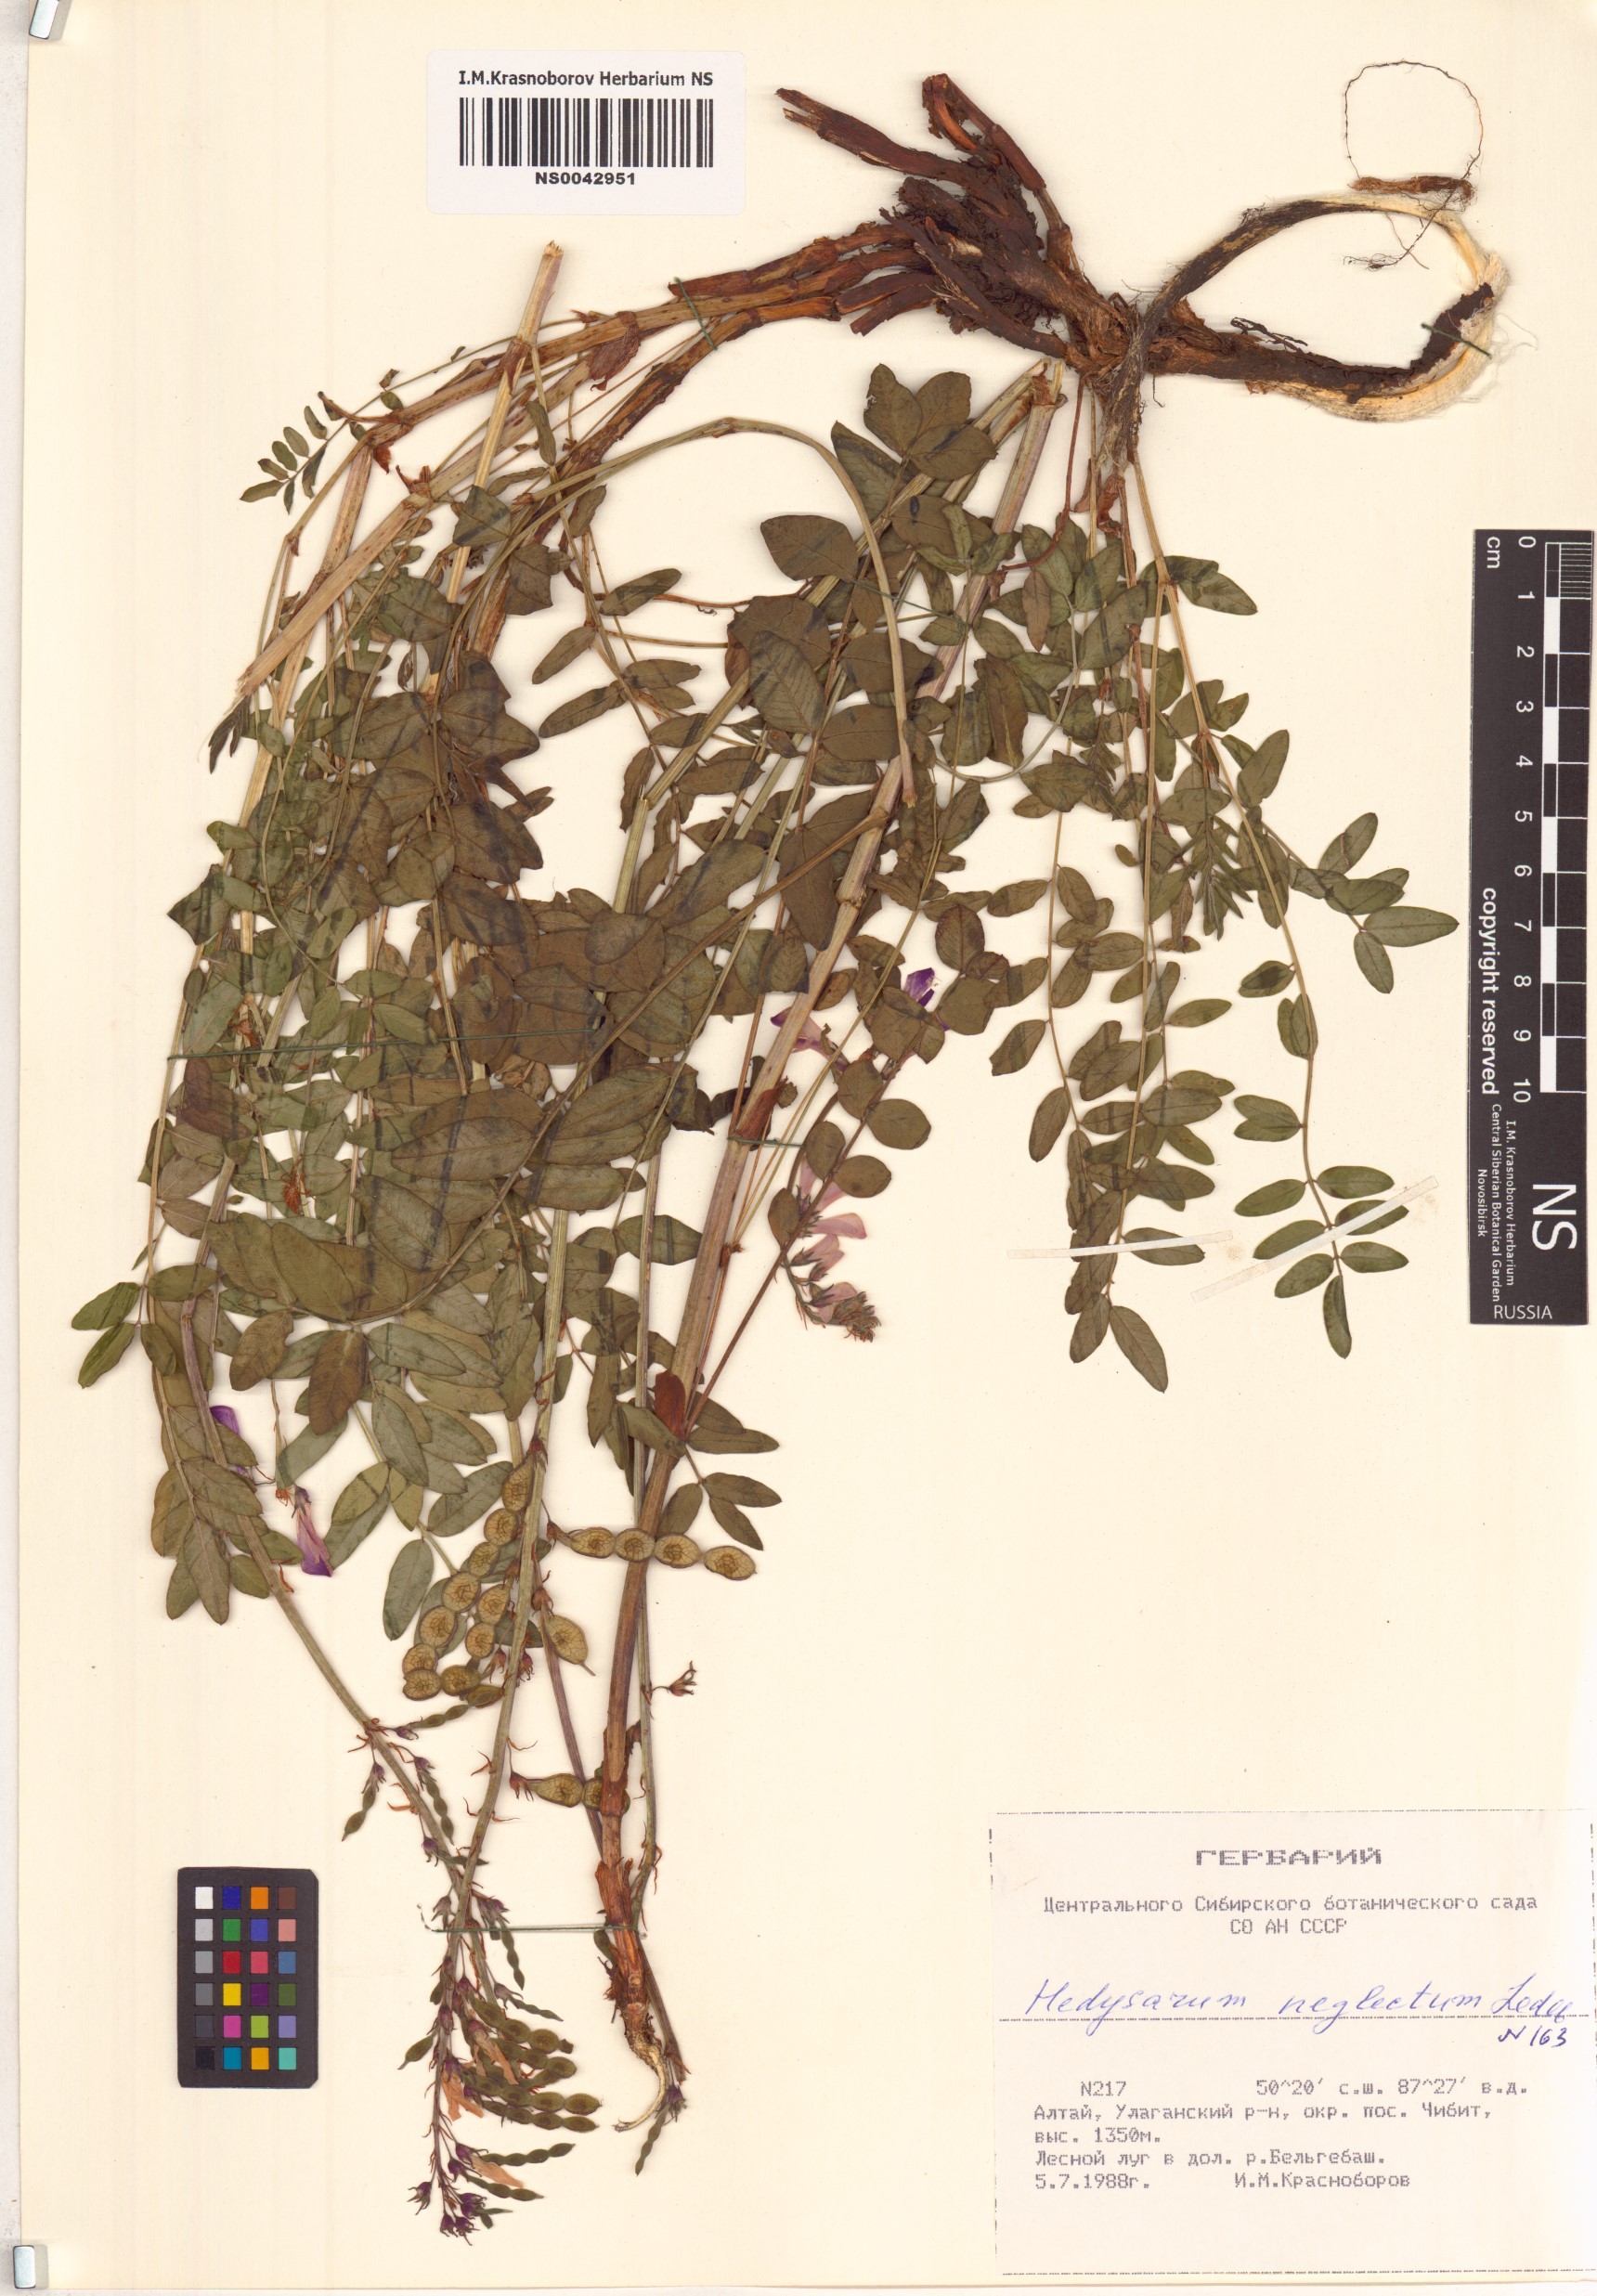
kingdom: Plantae
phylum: Tracheophyta
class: Magnoliopsida
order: Fabales
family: Fabaceae
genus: Hedysarum
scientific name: Hedysarum neglectum
